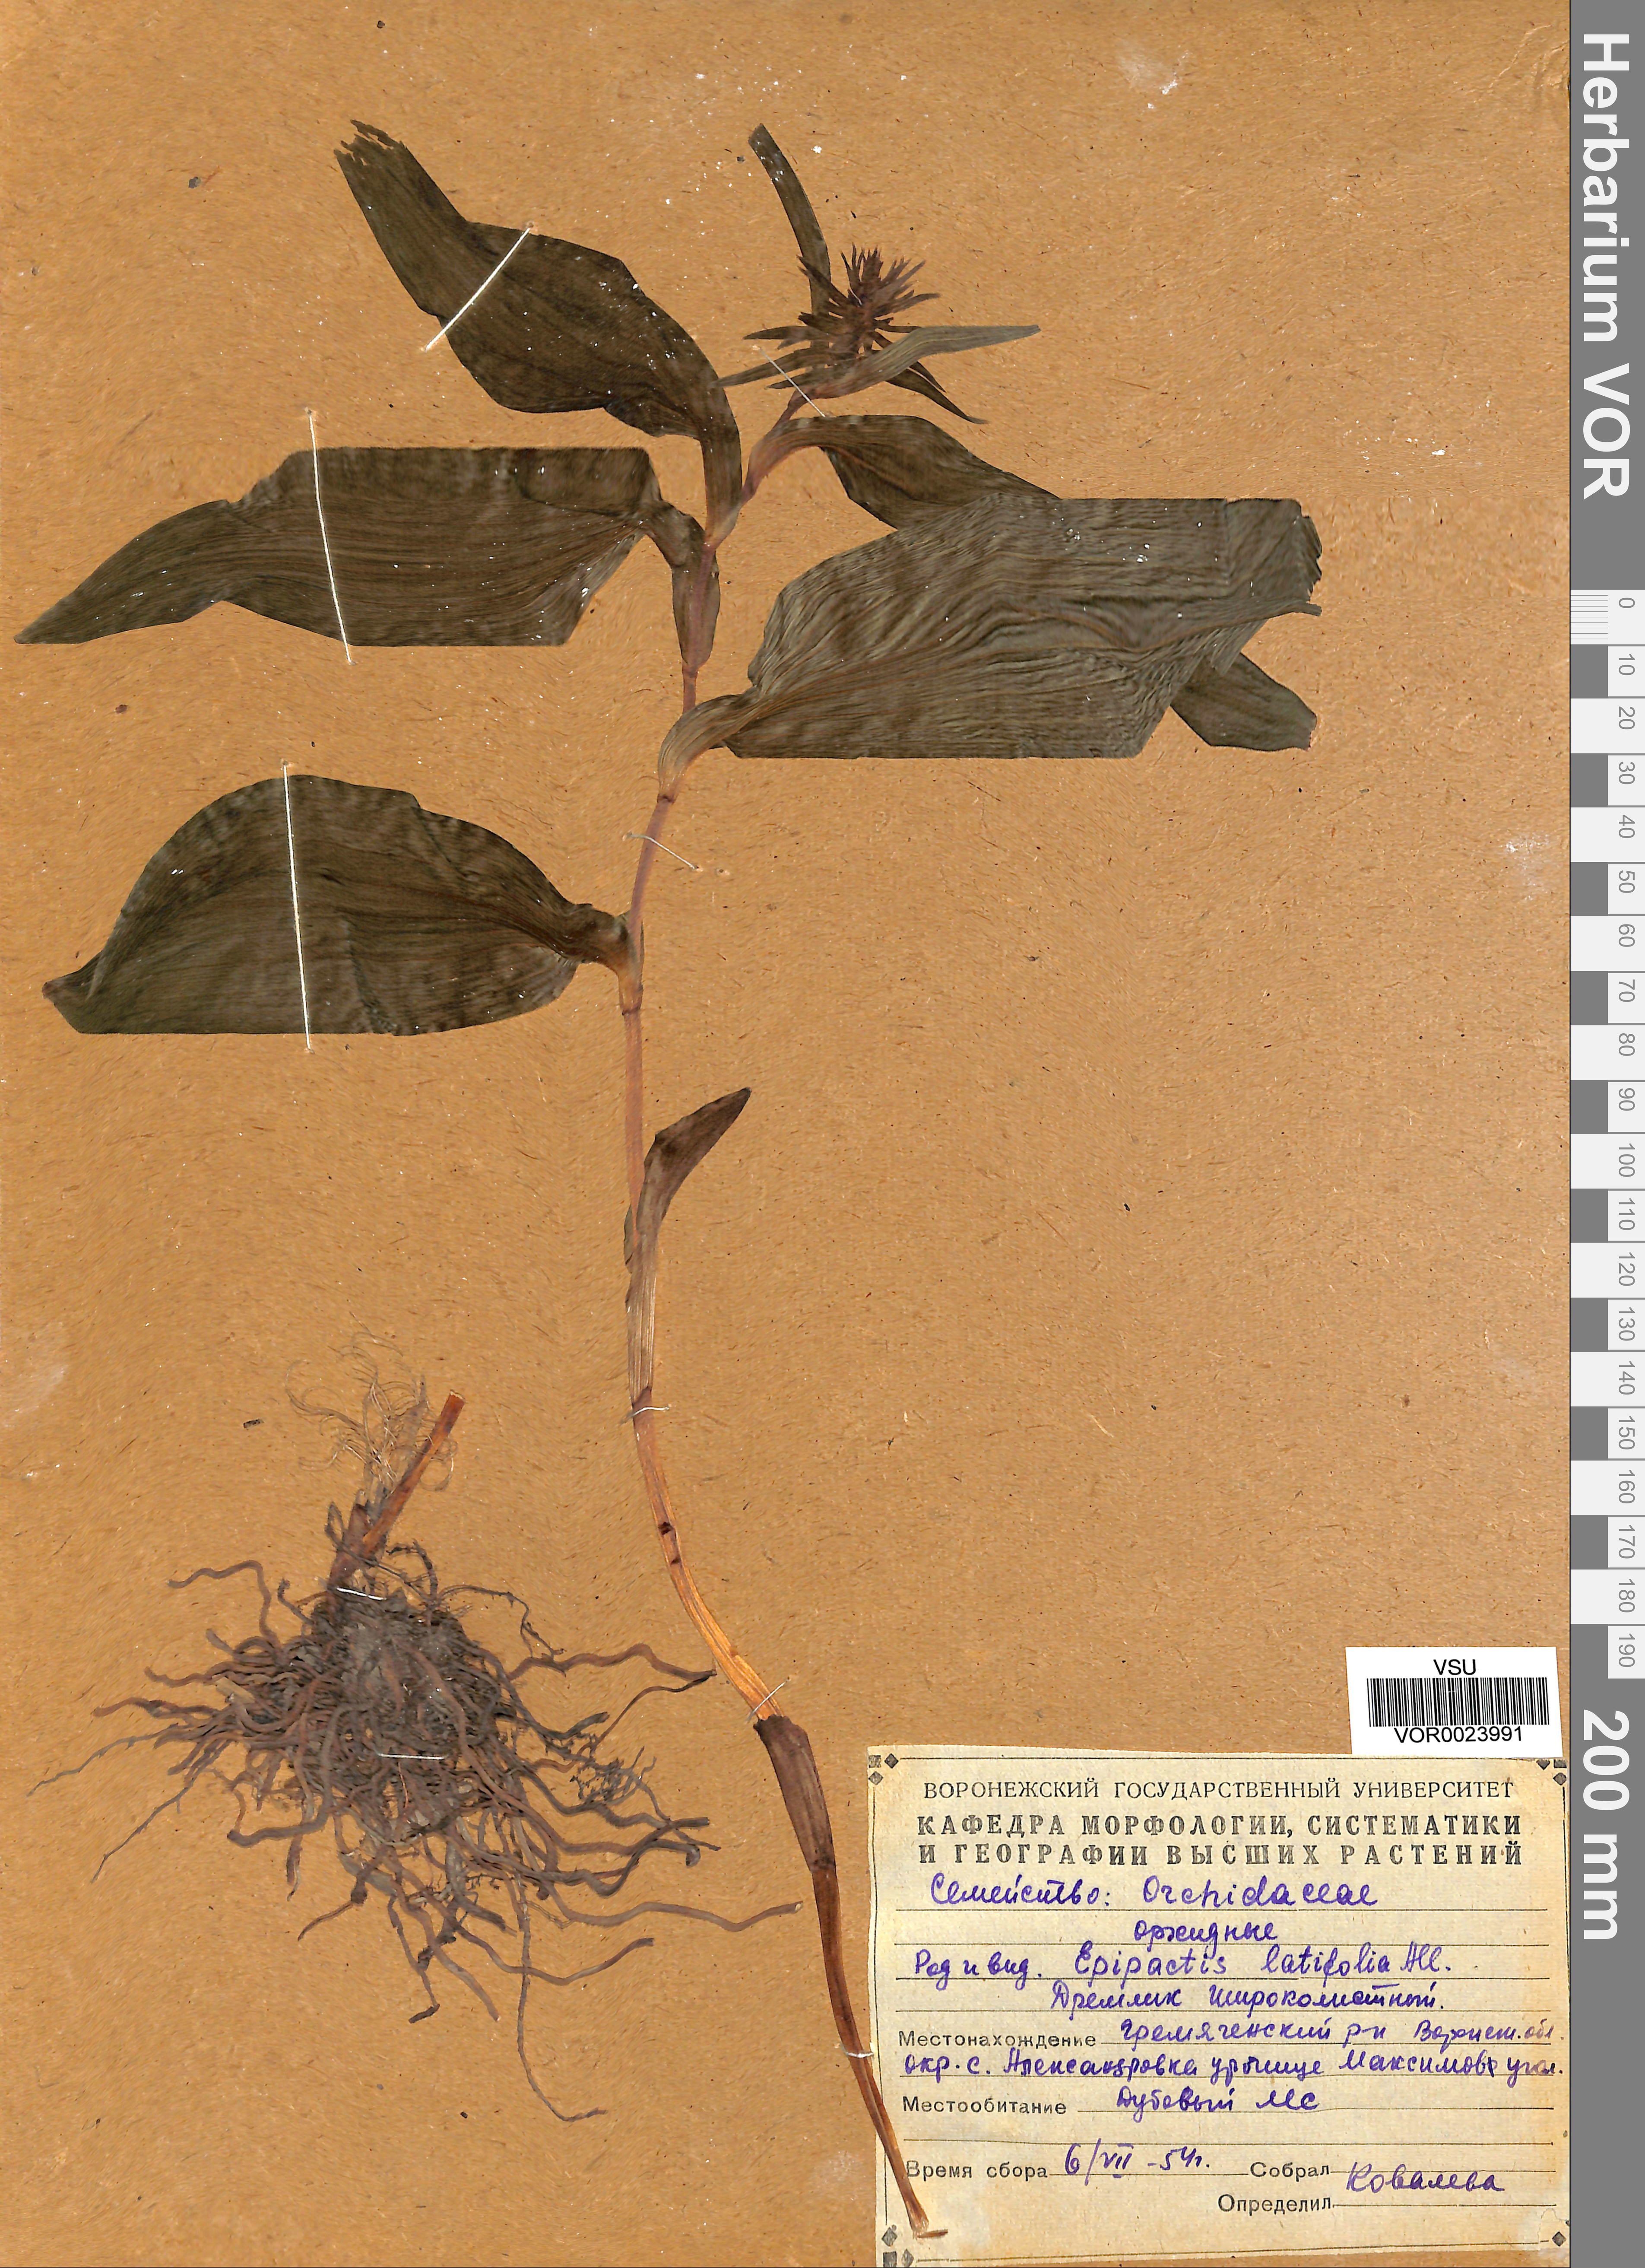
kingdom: Plantae
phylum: Tracheophyta
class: Liliopsida
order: Asparagales
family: Orchidaceae
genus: Epipactis
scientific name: Epipactis helleborine
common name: Broad-leaved helleborine
